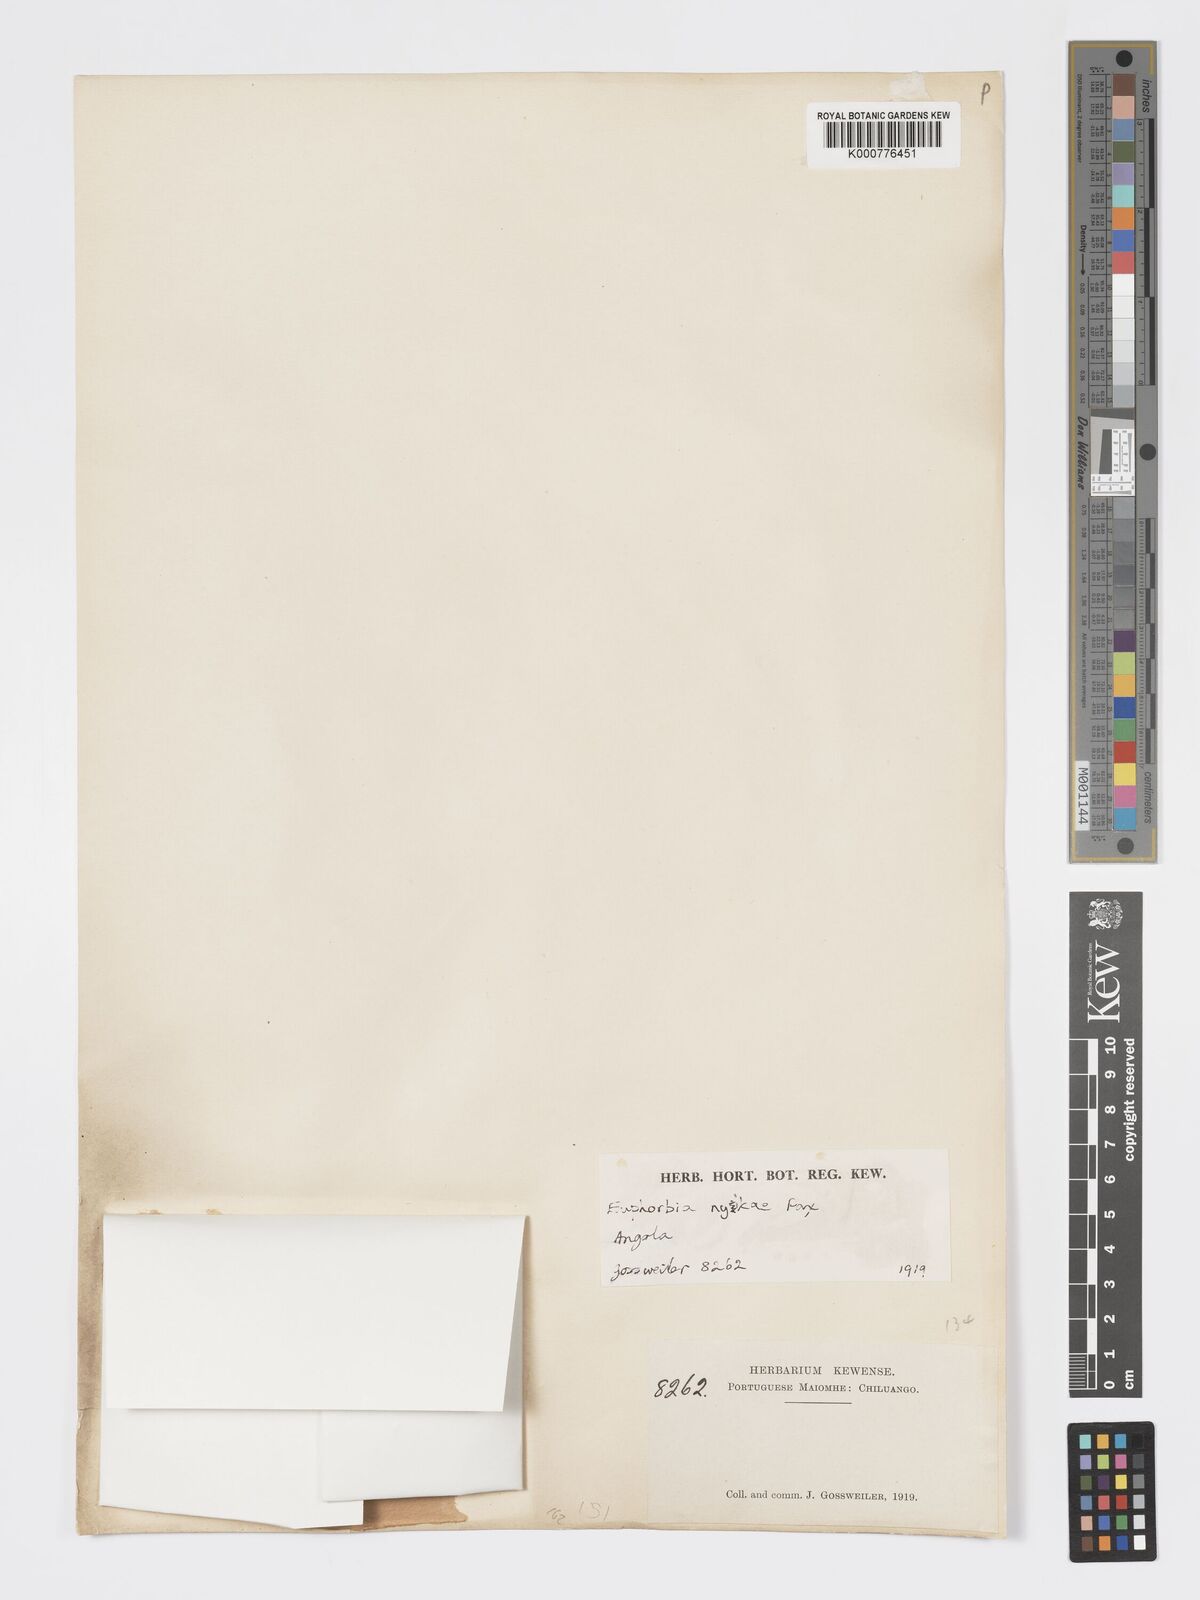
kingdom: Plantae
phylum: Tracheophyta
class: Magnoliopsida
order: Malpighiales
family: Euphorbiaceae
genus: Euphorbia
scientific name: Euphorbia
